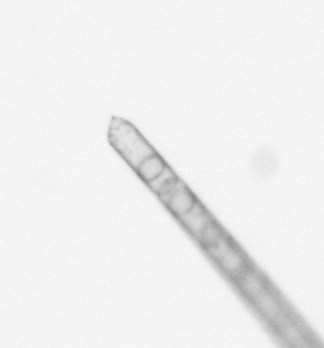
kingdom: Chromista
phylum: Ochrophyta
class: Bacillariophyceae
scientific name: Bacillariophyceae
